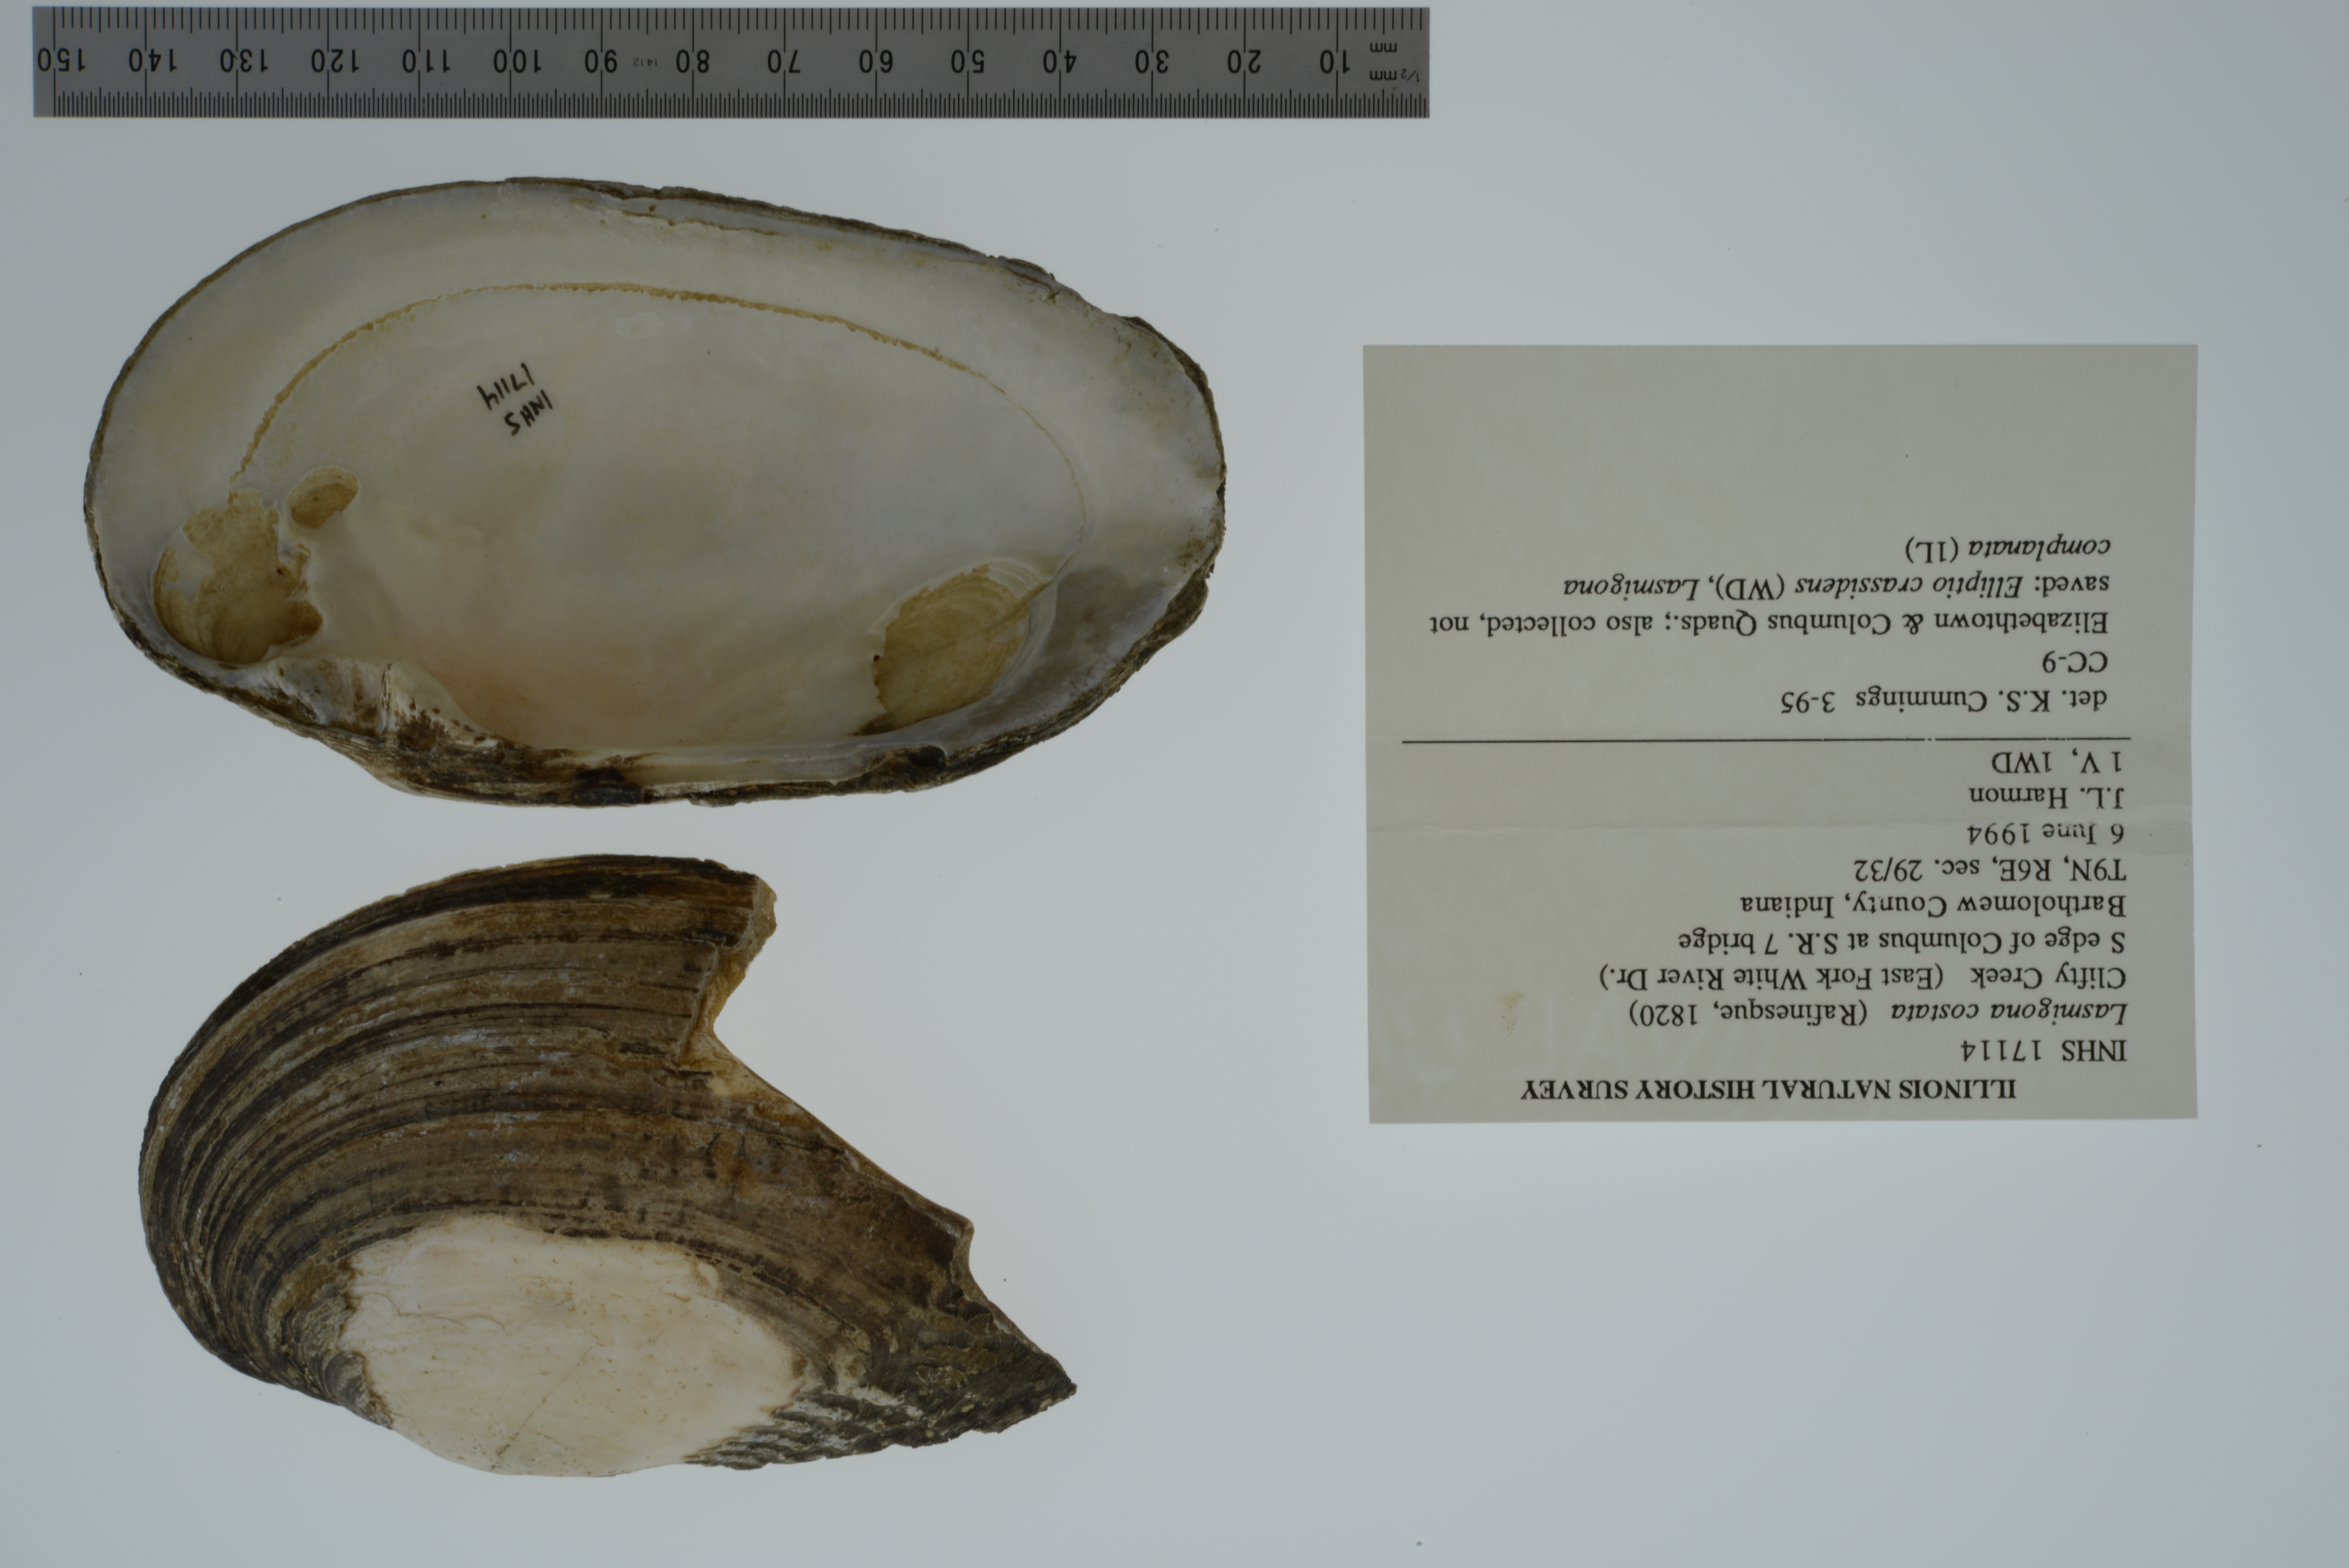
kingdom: Animalia
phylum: Mollusca
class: Bivalvia
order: Unionida
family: Unionidae
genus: Lasmigona
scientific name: Lasmigona costata
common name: Flutedshell
